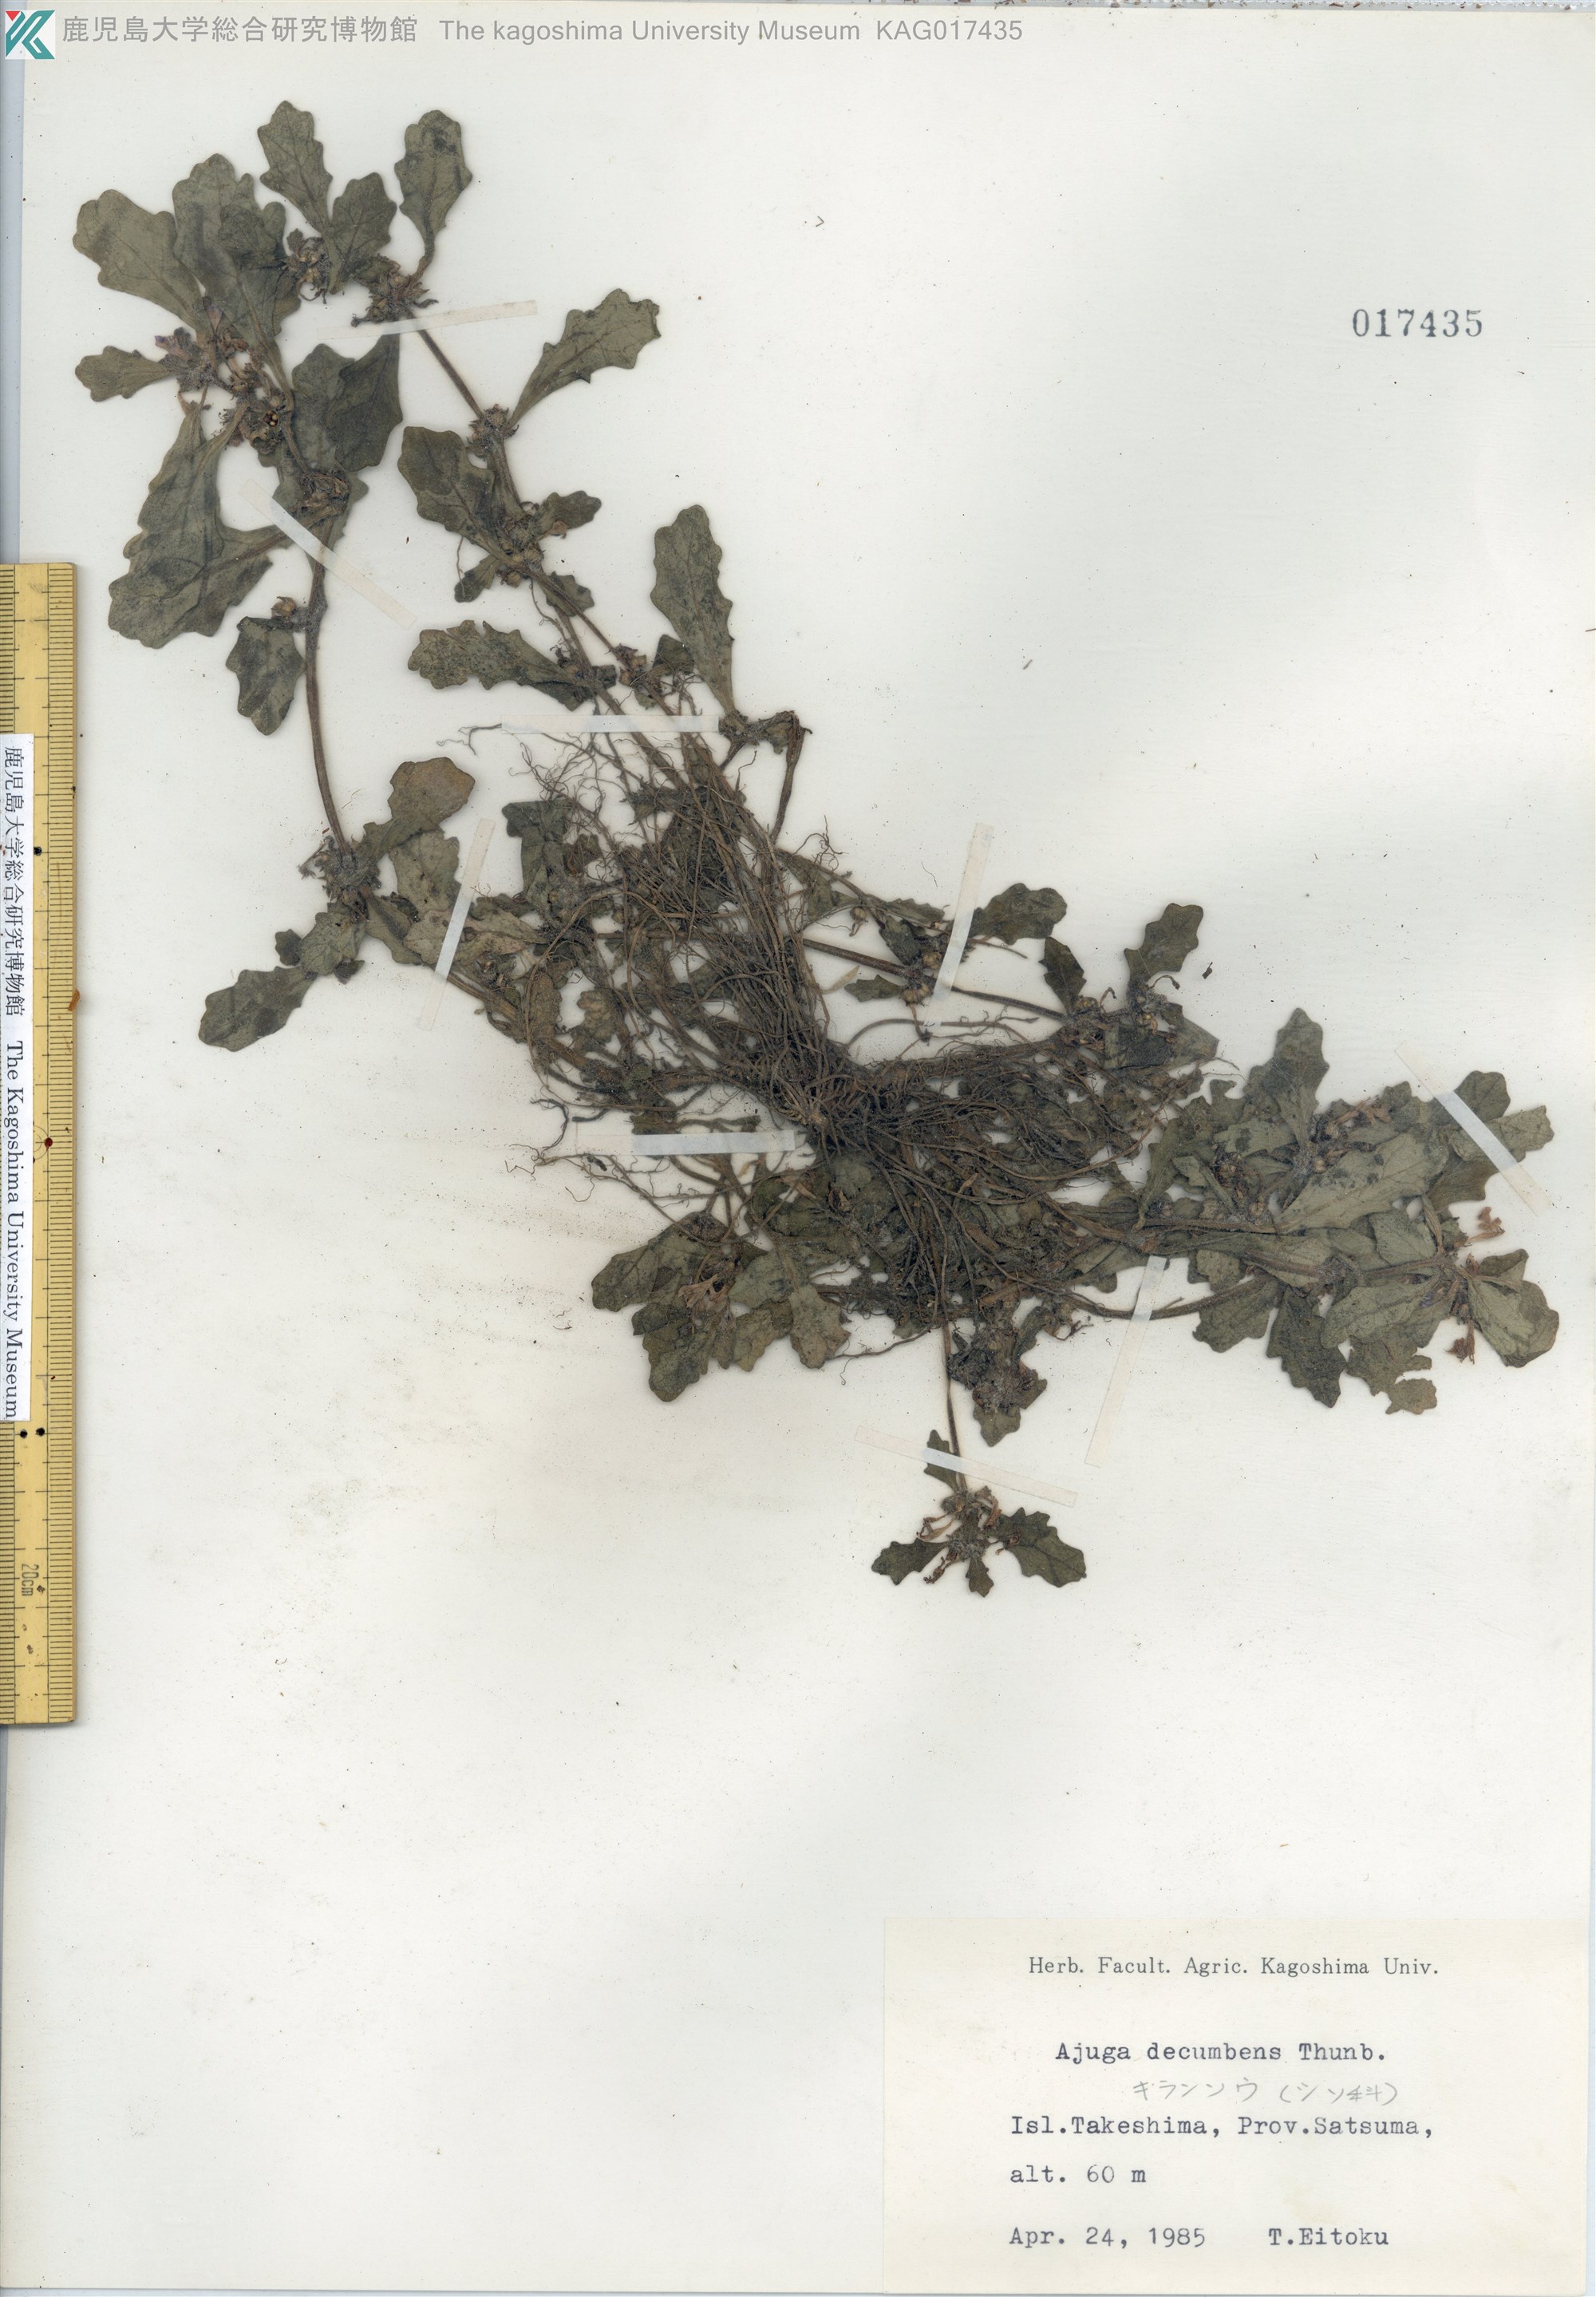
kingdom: Plantae
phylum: Tracheophyta
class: Magnoliopsida
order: Lamiales
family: Lamiaceae
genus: Ajuga
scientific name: Ajuga decumbens
